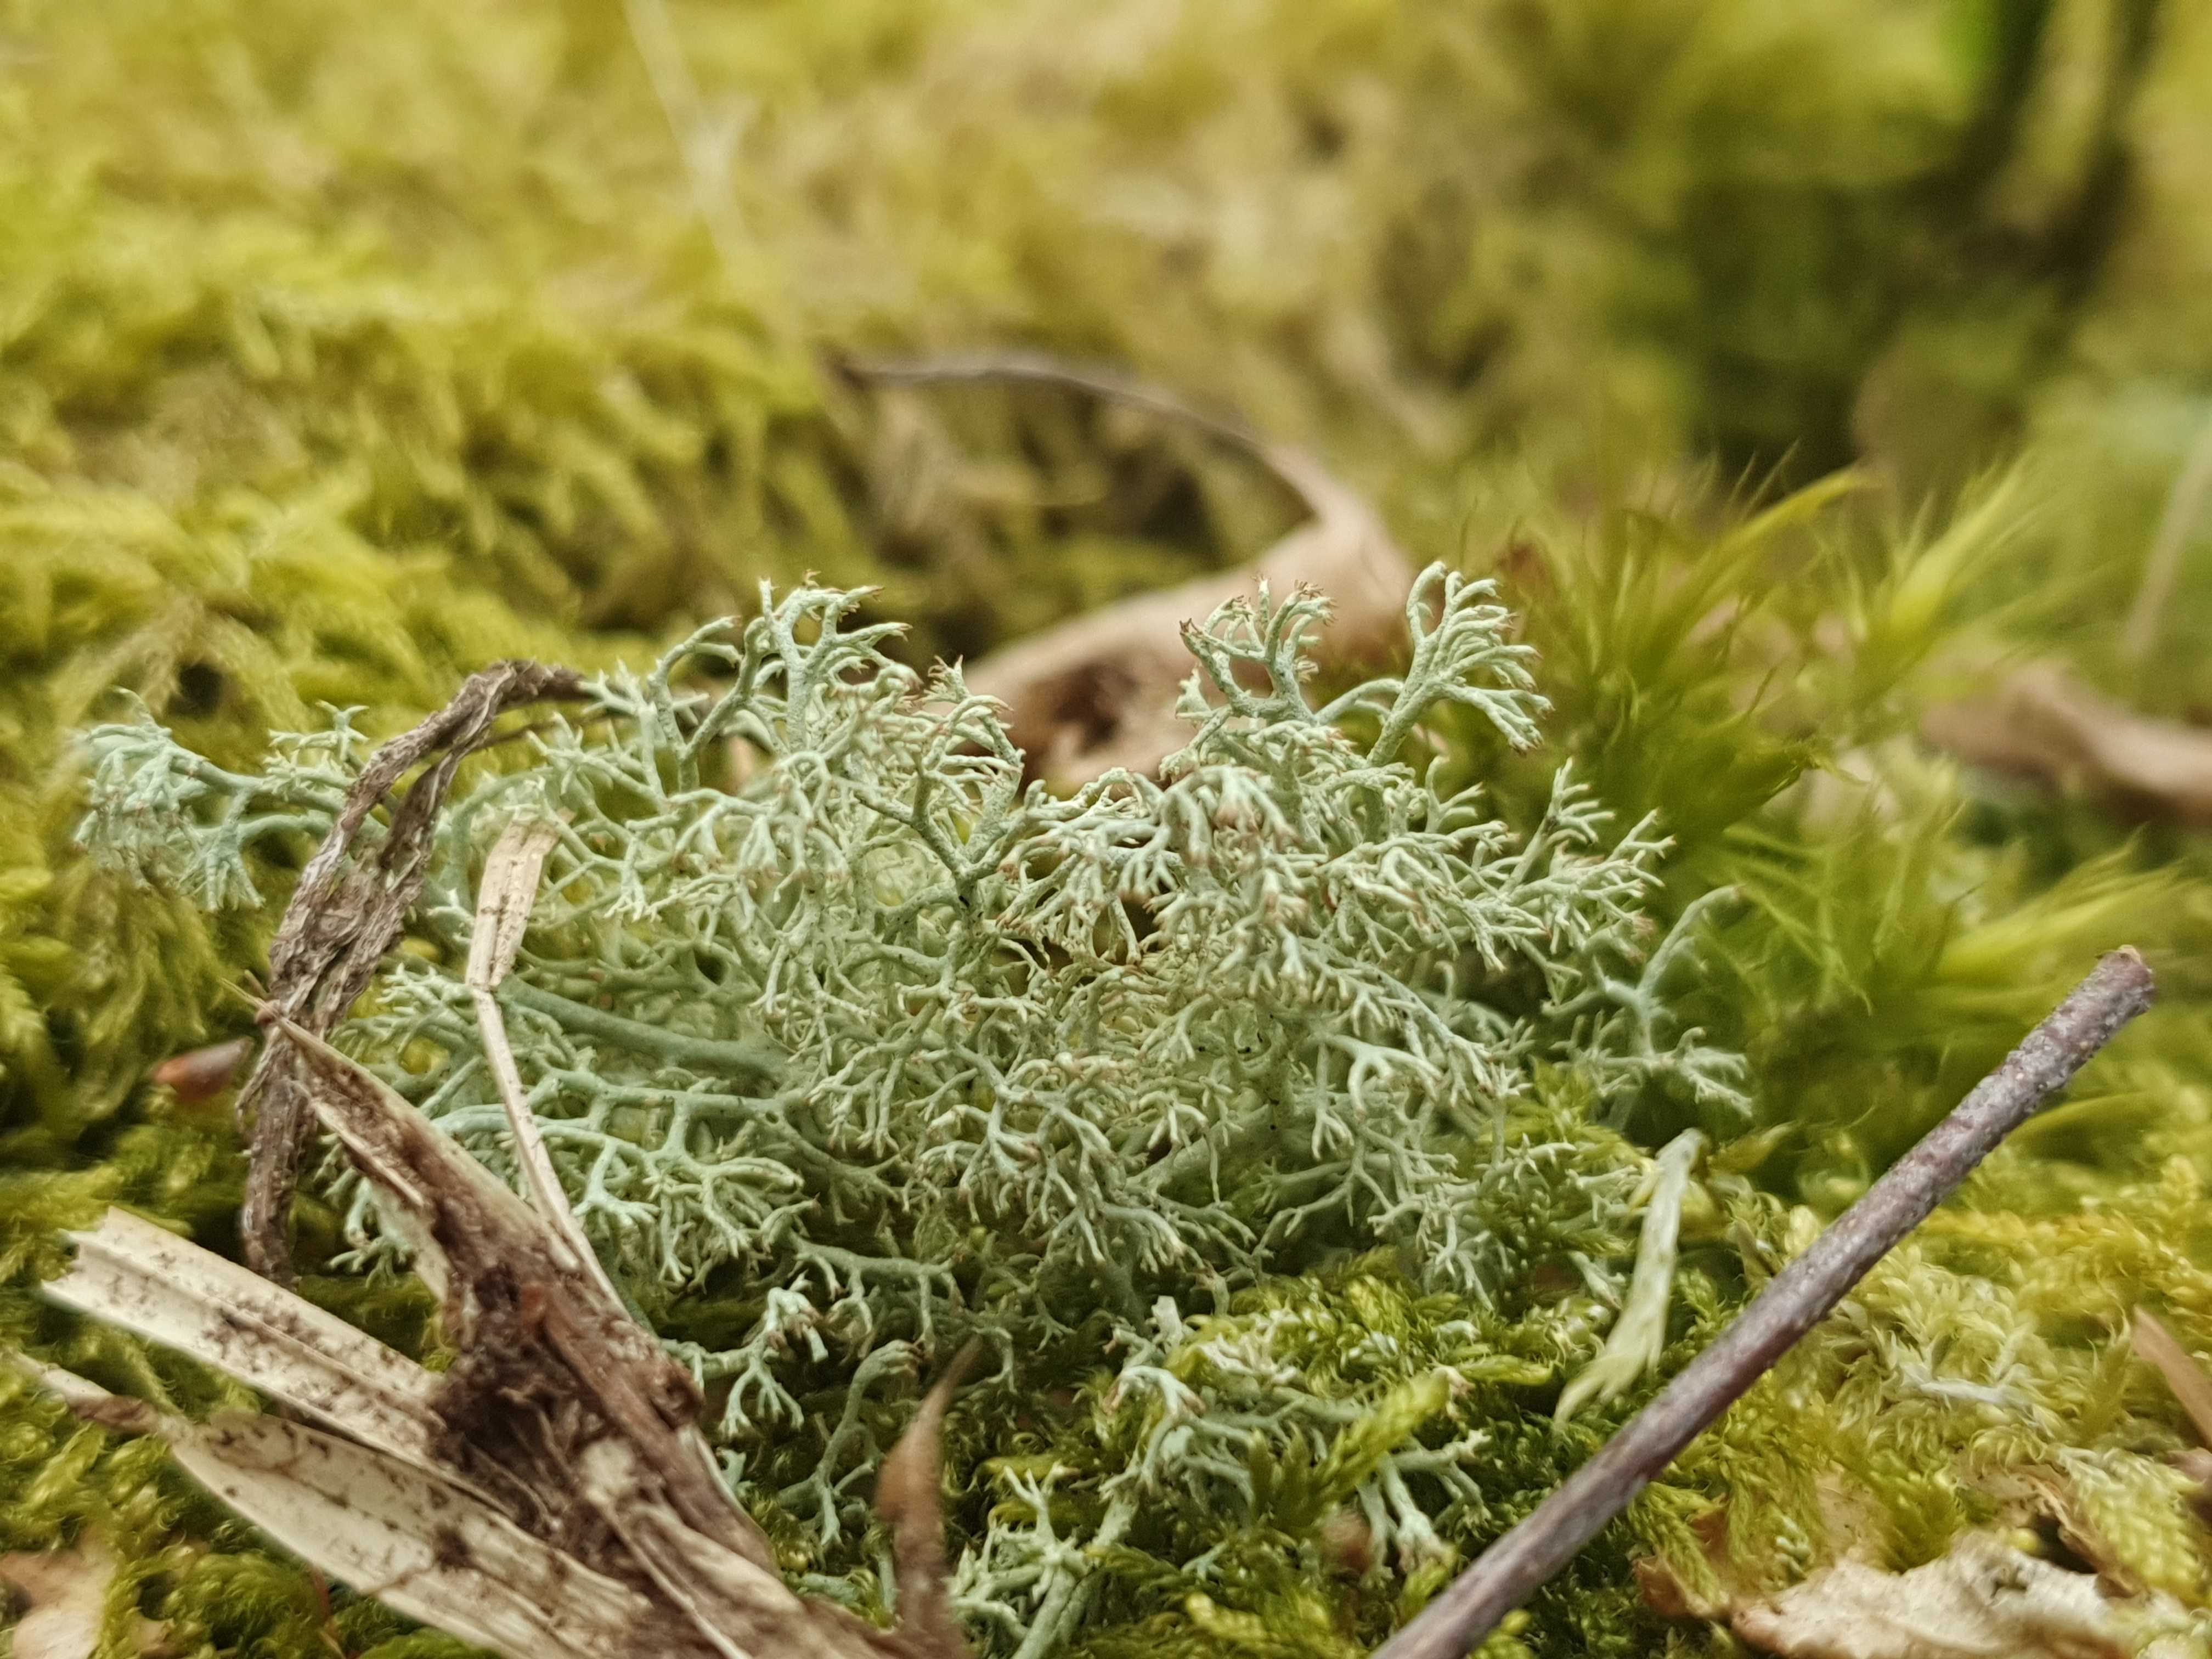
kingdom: Fungi
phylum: Ascomycota
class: Lecanoromycetes
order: Lecanorales
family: Cladoniaceae
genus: Cladonia
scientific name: Cladonia ciliata
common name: spinkel rensdyrlav
